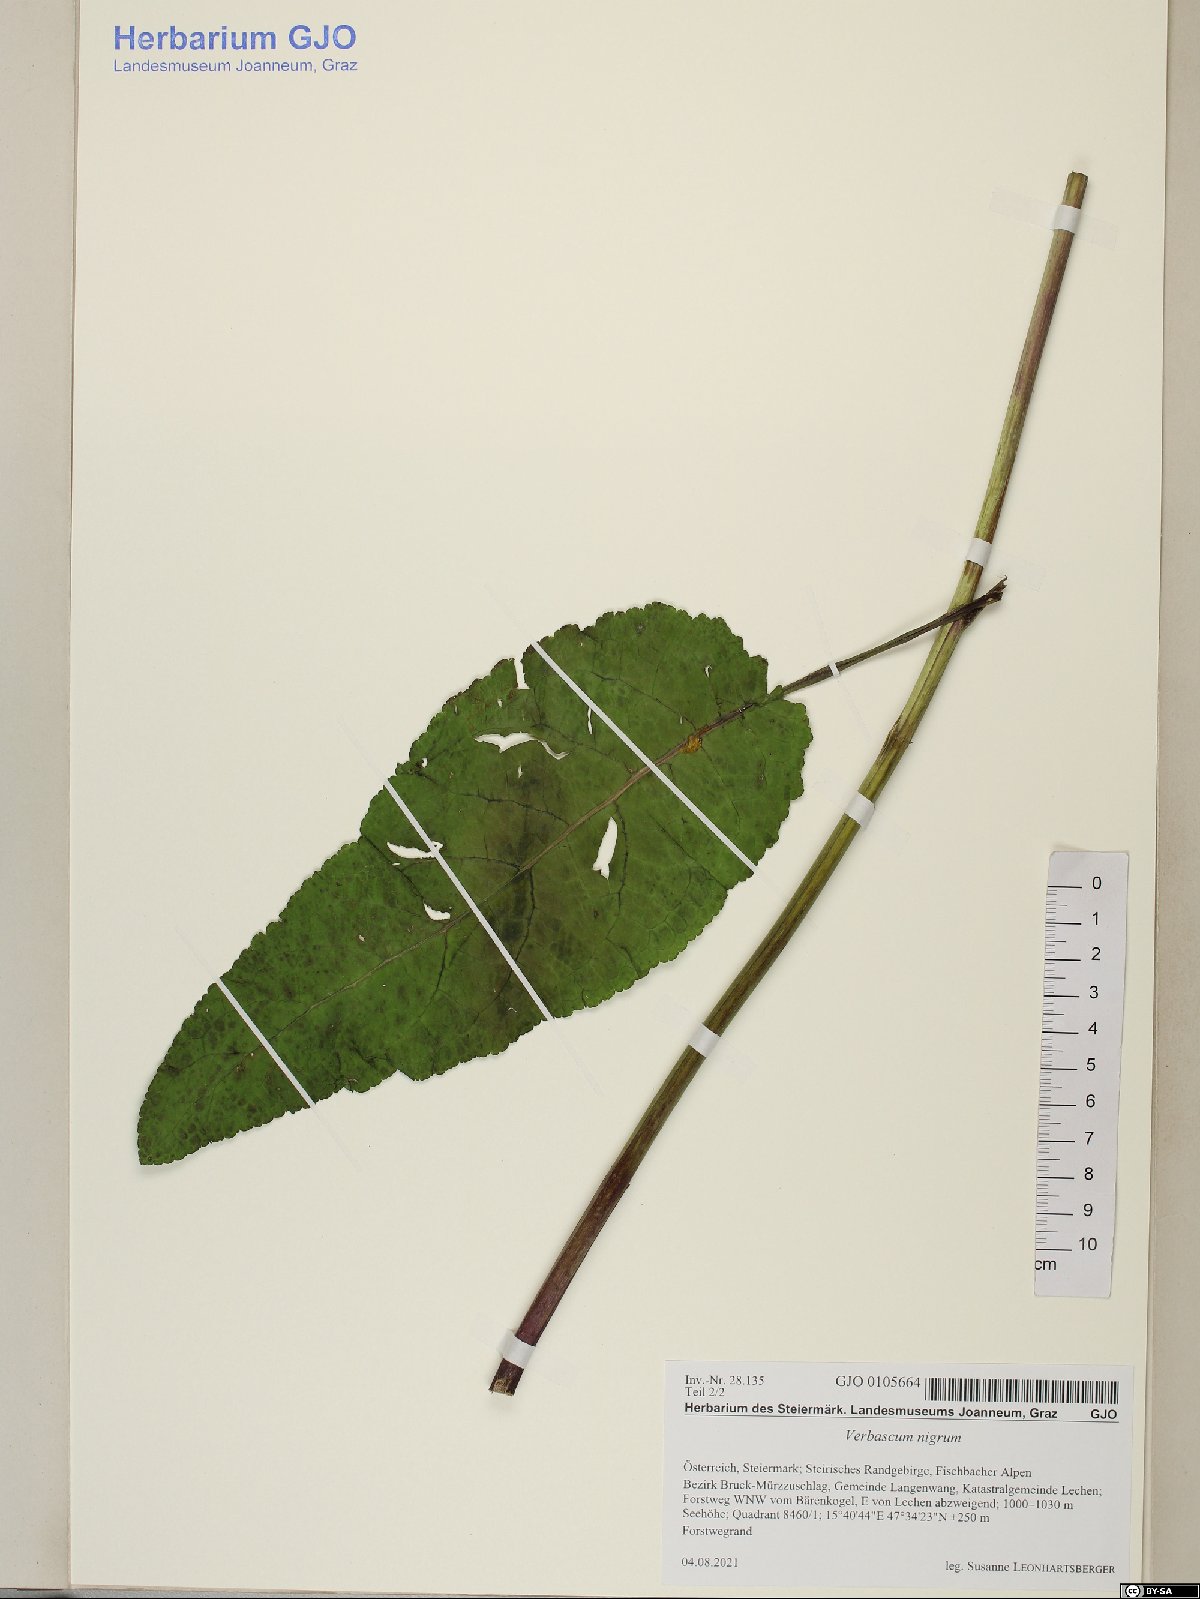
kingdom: Plantae
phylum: Tracheophyta
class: Magnoliopsida
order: Lamiales
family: Scrophulariaceae
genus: Verbascum
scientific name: Verbascum nigrum
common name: Dark mullein
